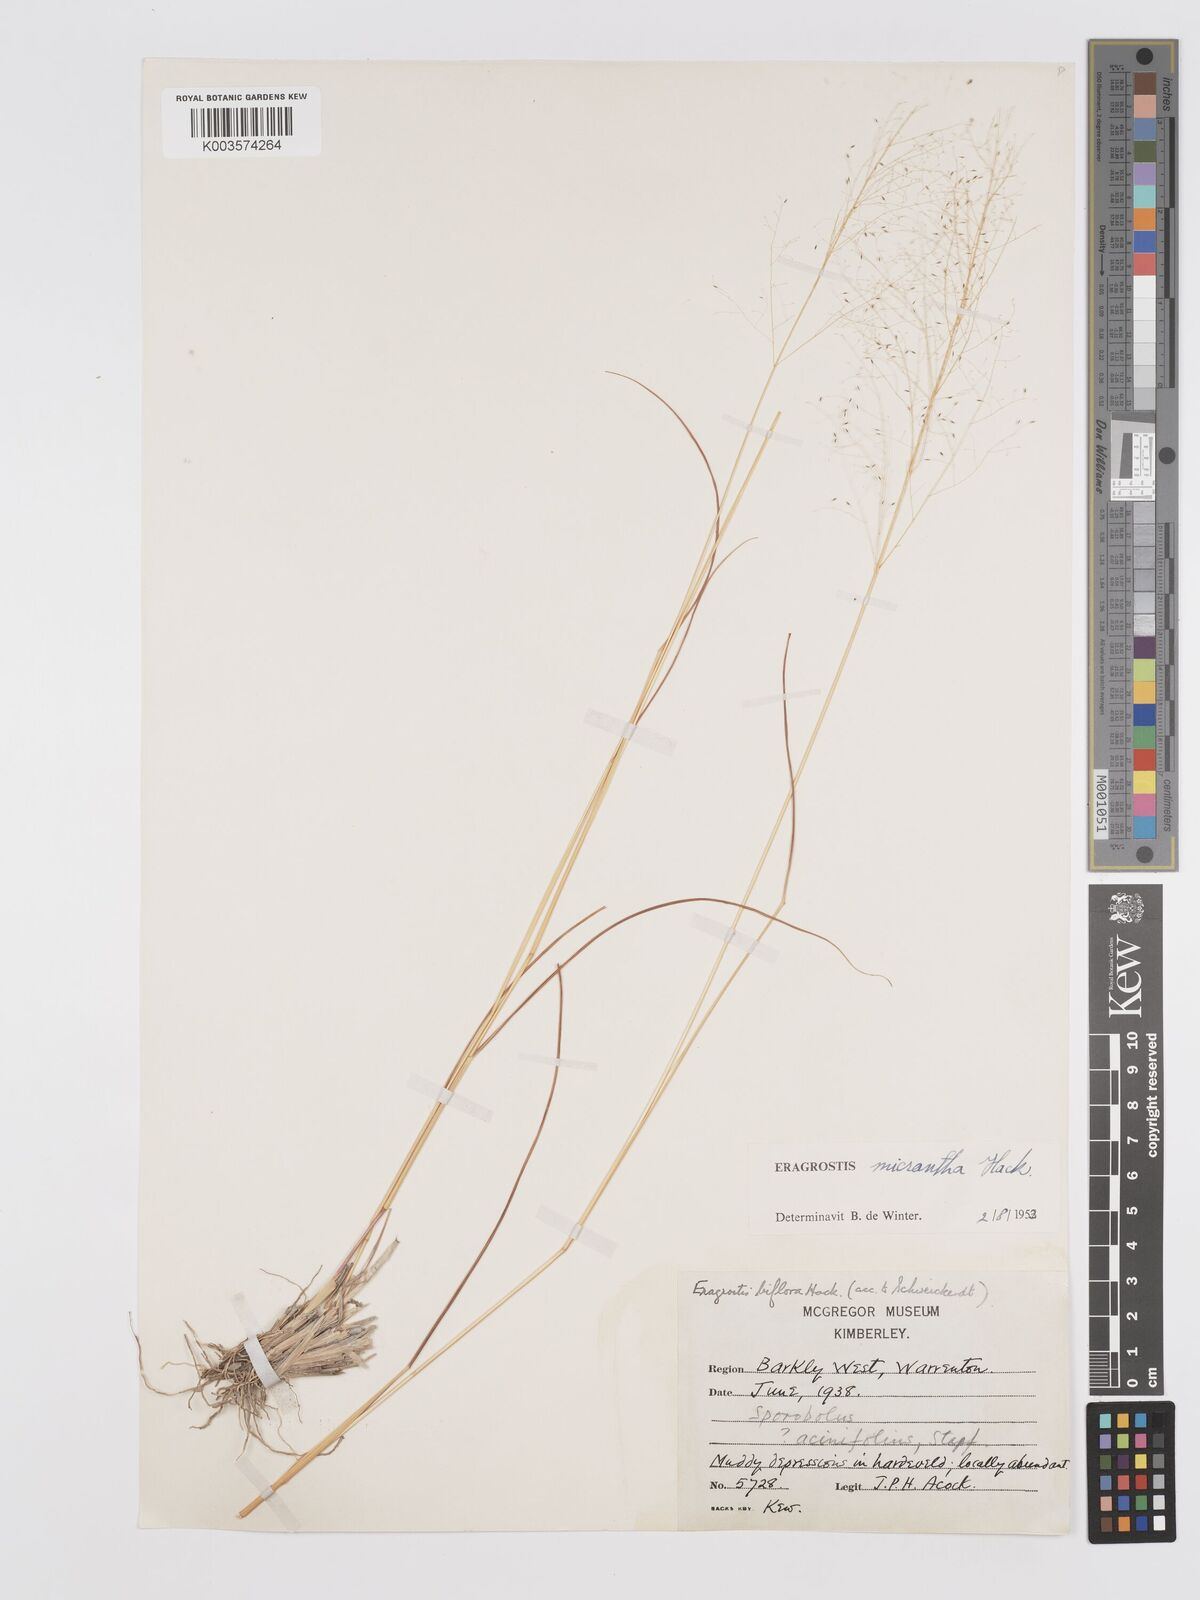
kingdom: Plantae
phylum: Tracheophyta
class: Liliopsida
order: Poales
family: Poaceae
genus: Eragrostis
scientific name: Eragrostis micrantha
